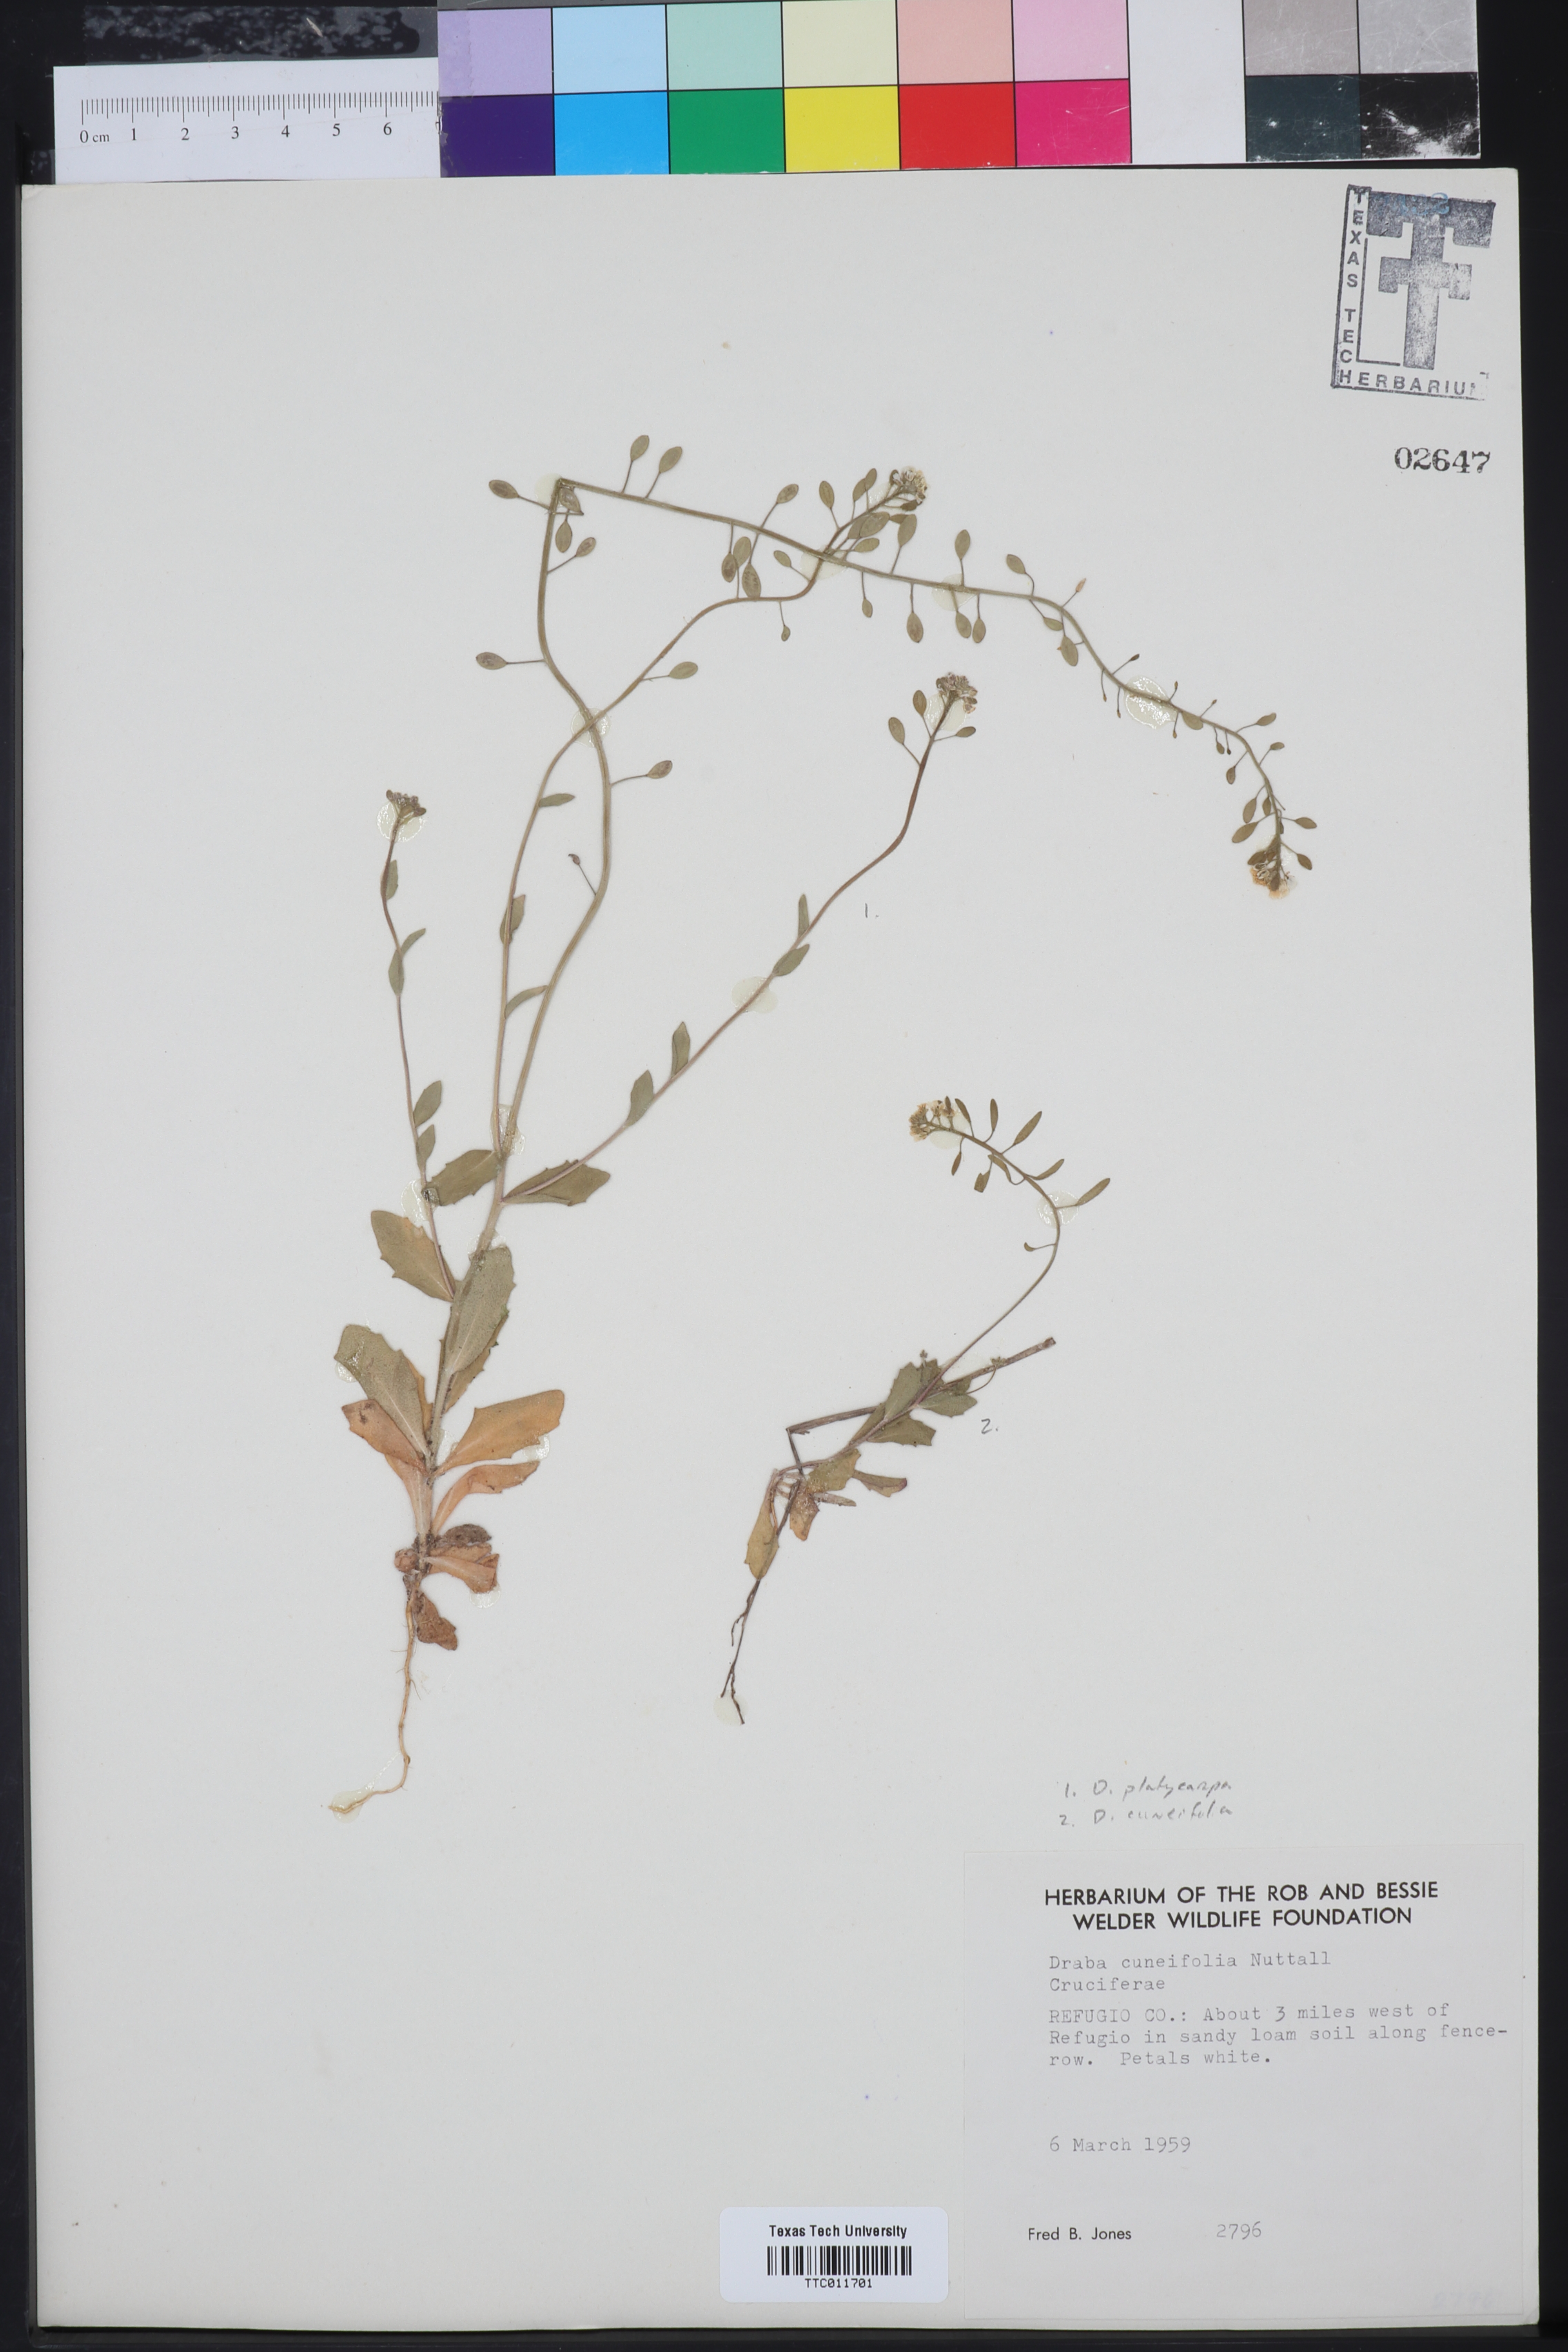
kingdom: Plantae
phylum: Tracheophyta
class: Magnoliopsida
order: Brassicales
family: Brassicaceae
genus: Tomostima
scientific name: Tomostima platycarpa
